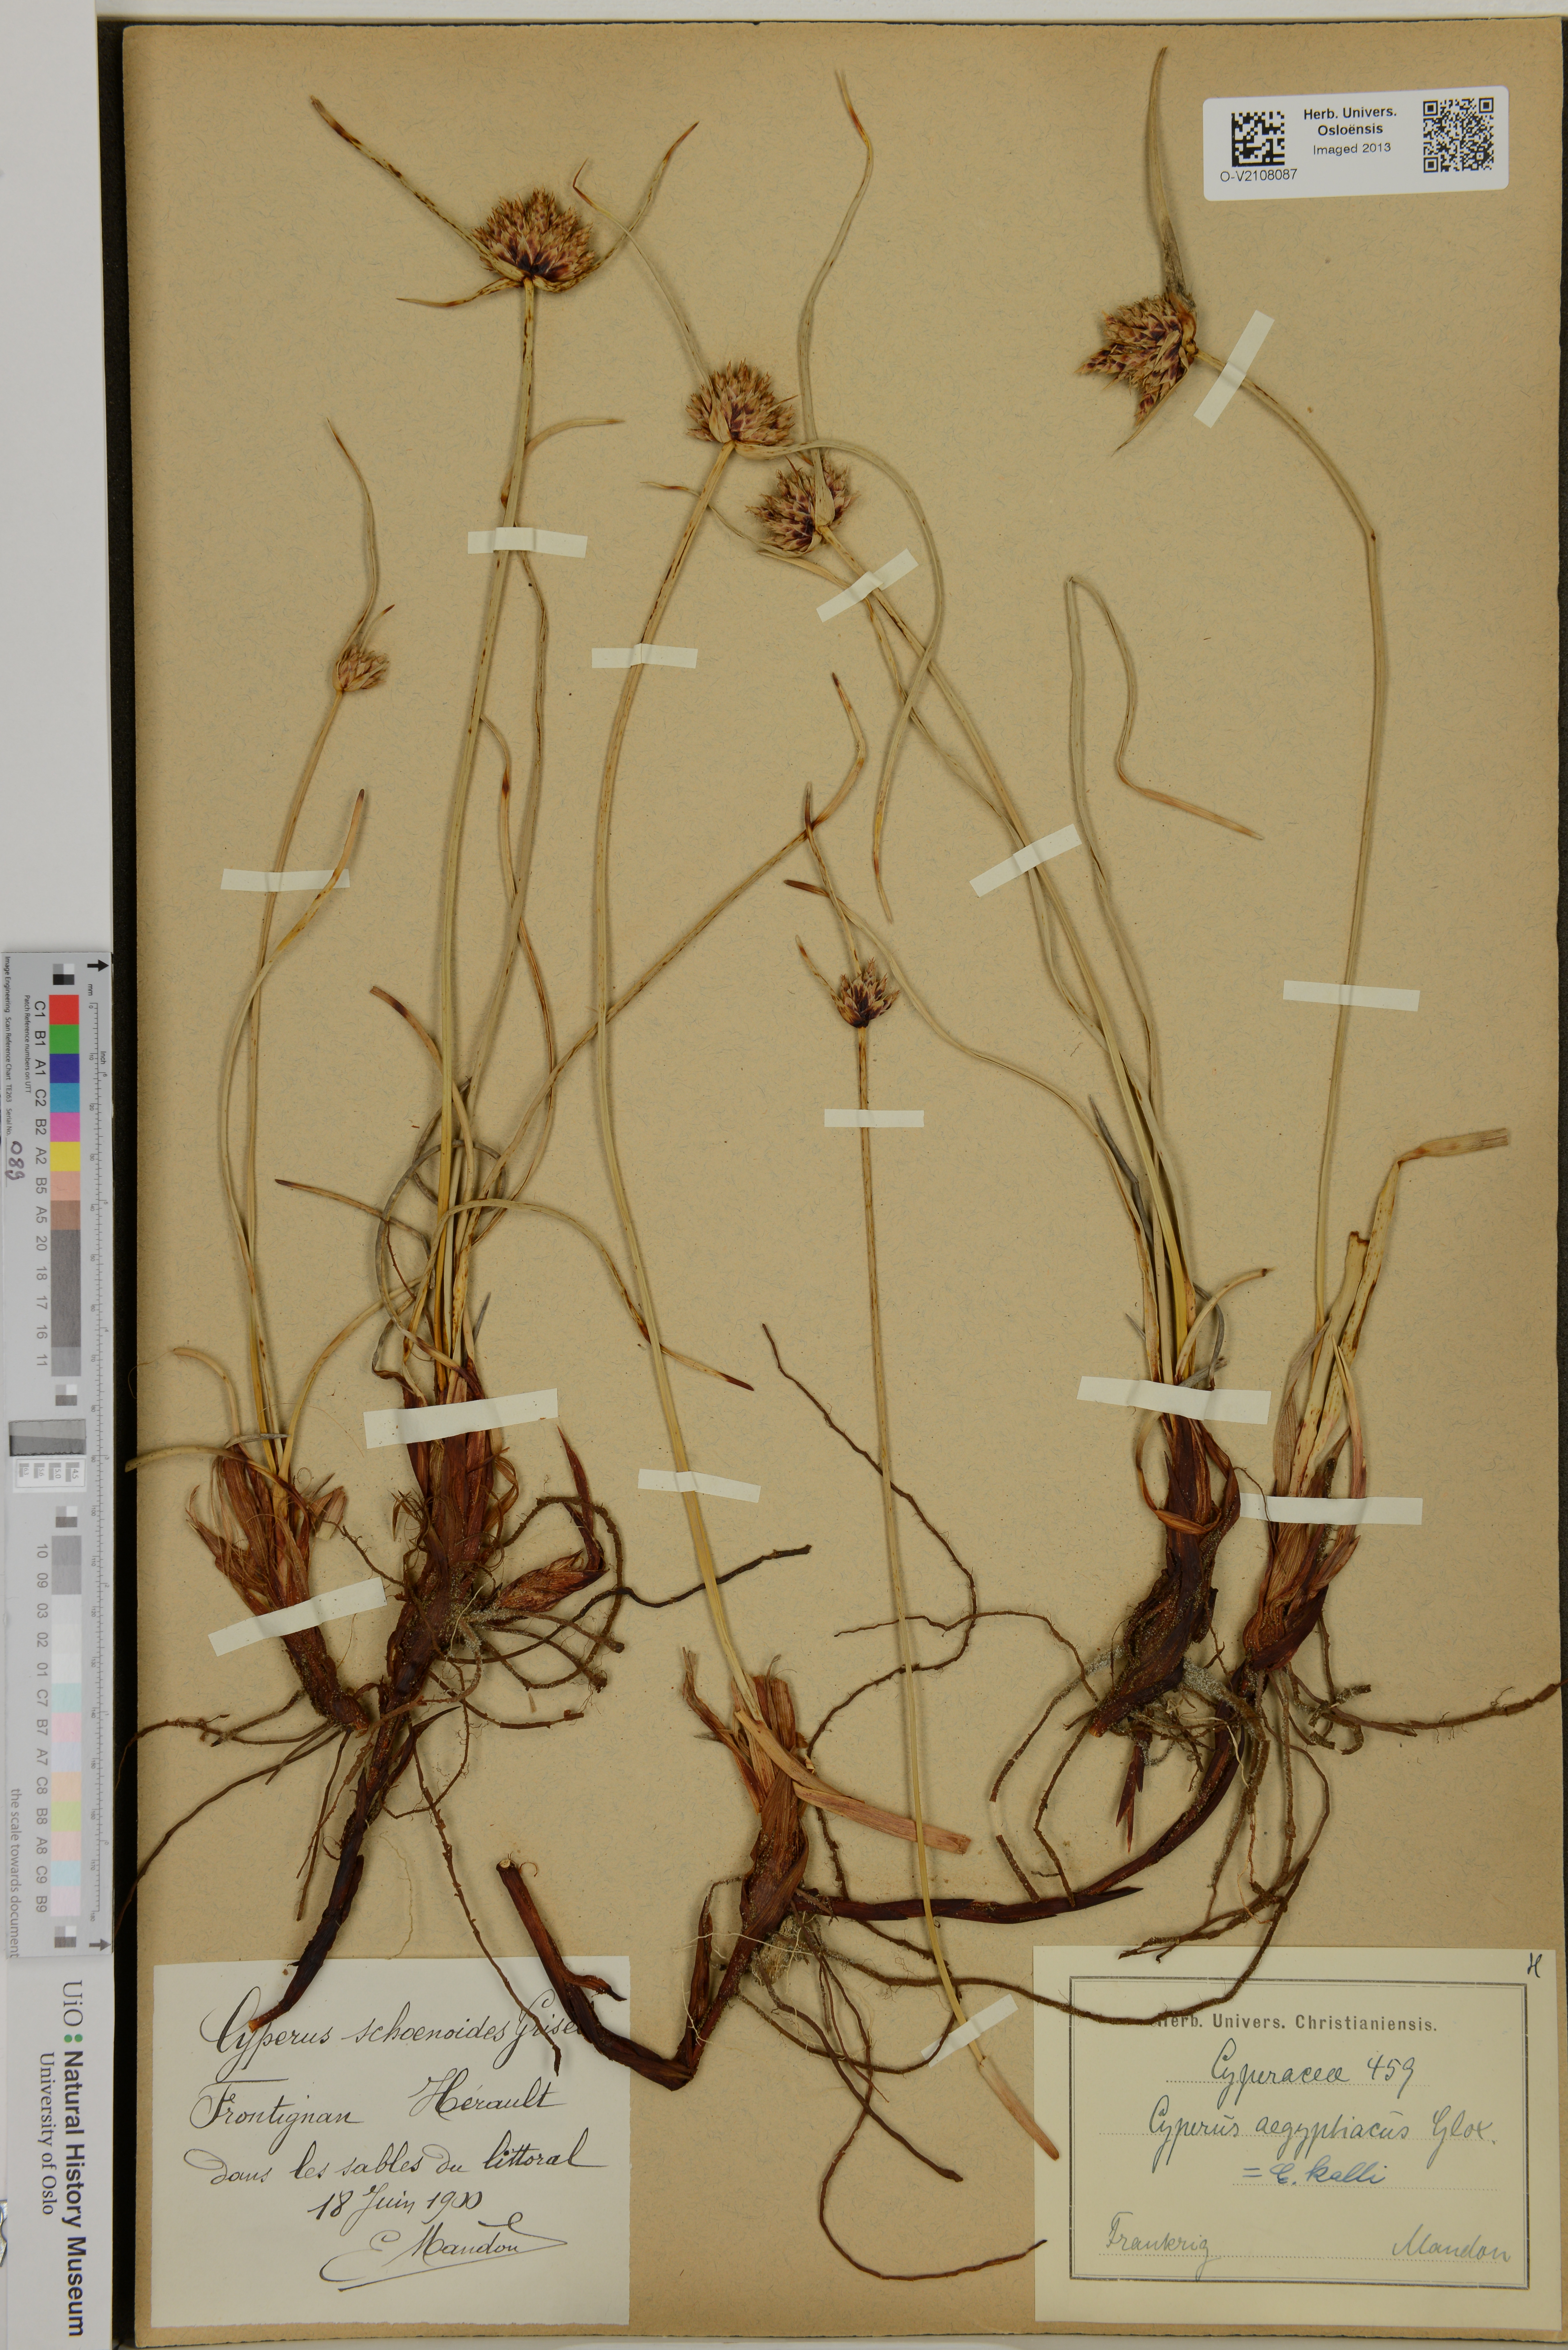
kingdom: Plantae
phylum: Tracheophyta
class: Liliopsida
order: Poales
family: Cyperaceae
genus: Cyperus
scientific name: Cyperus capitatus
